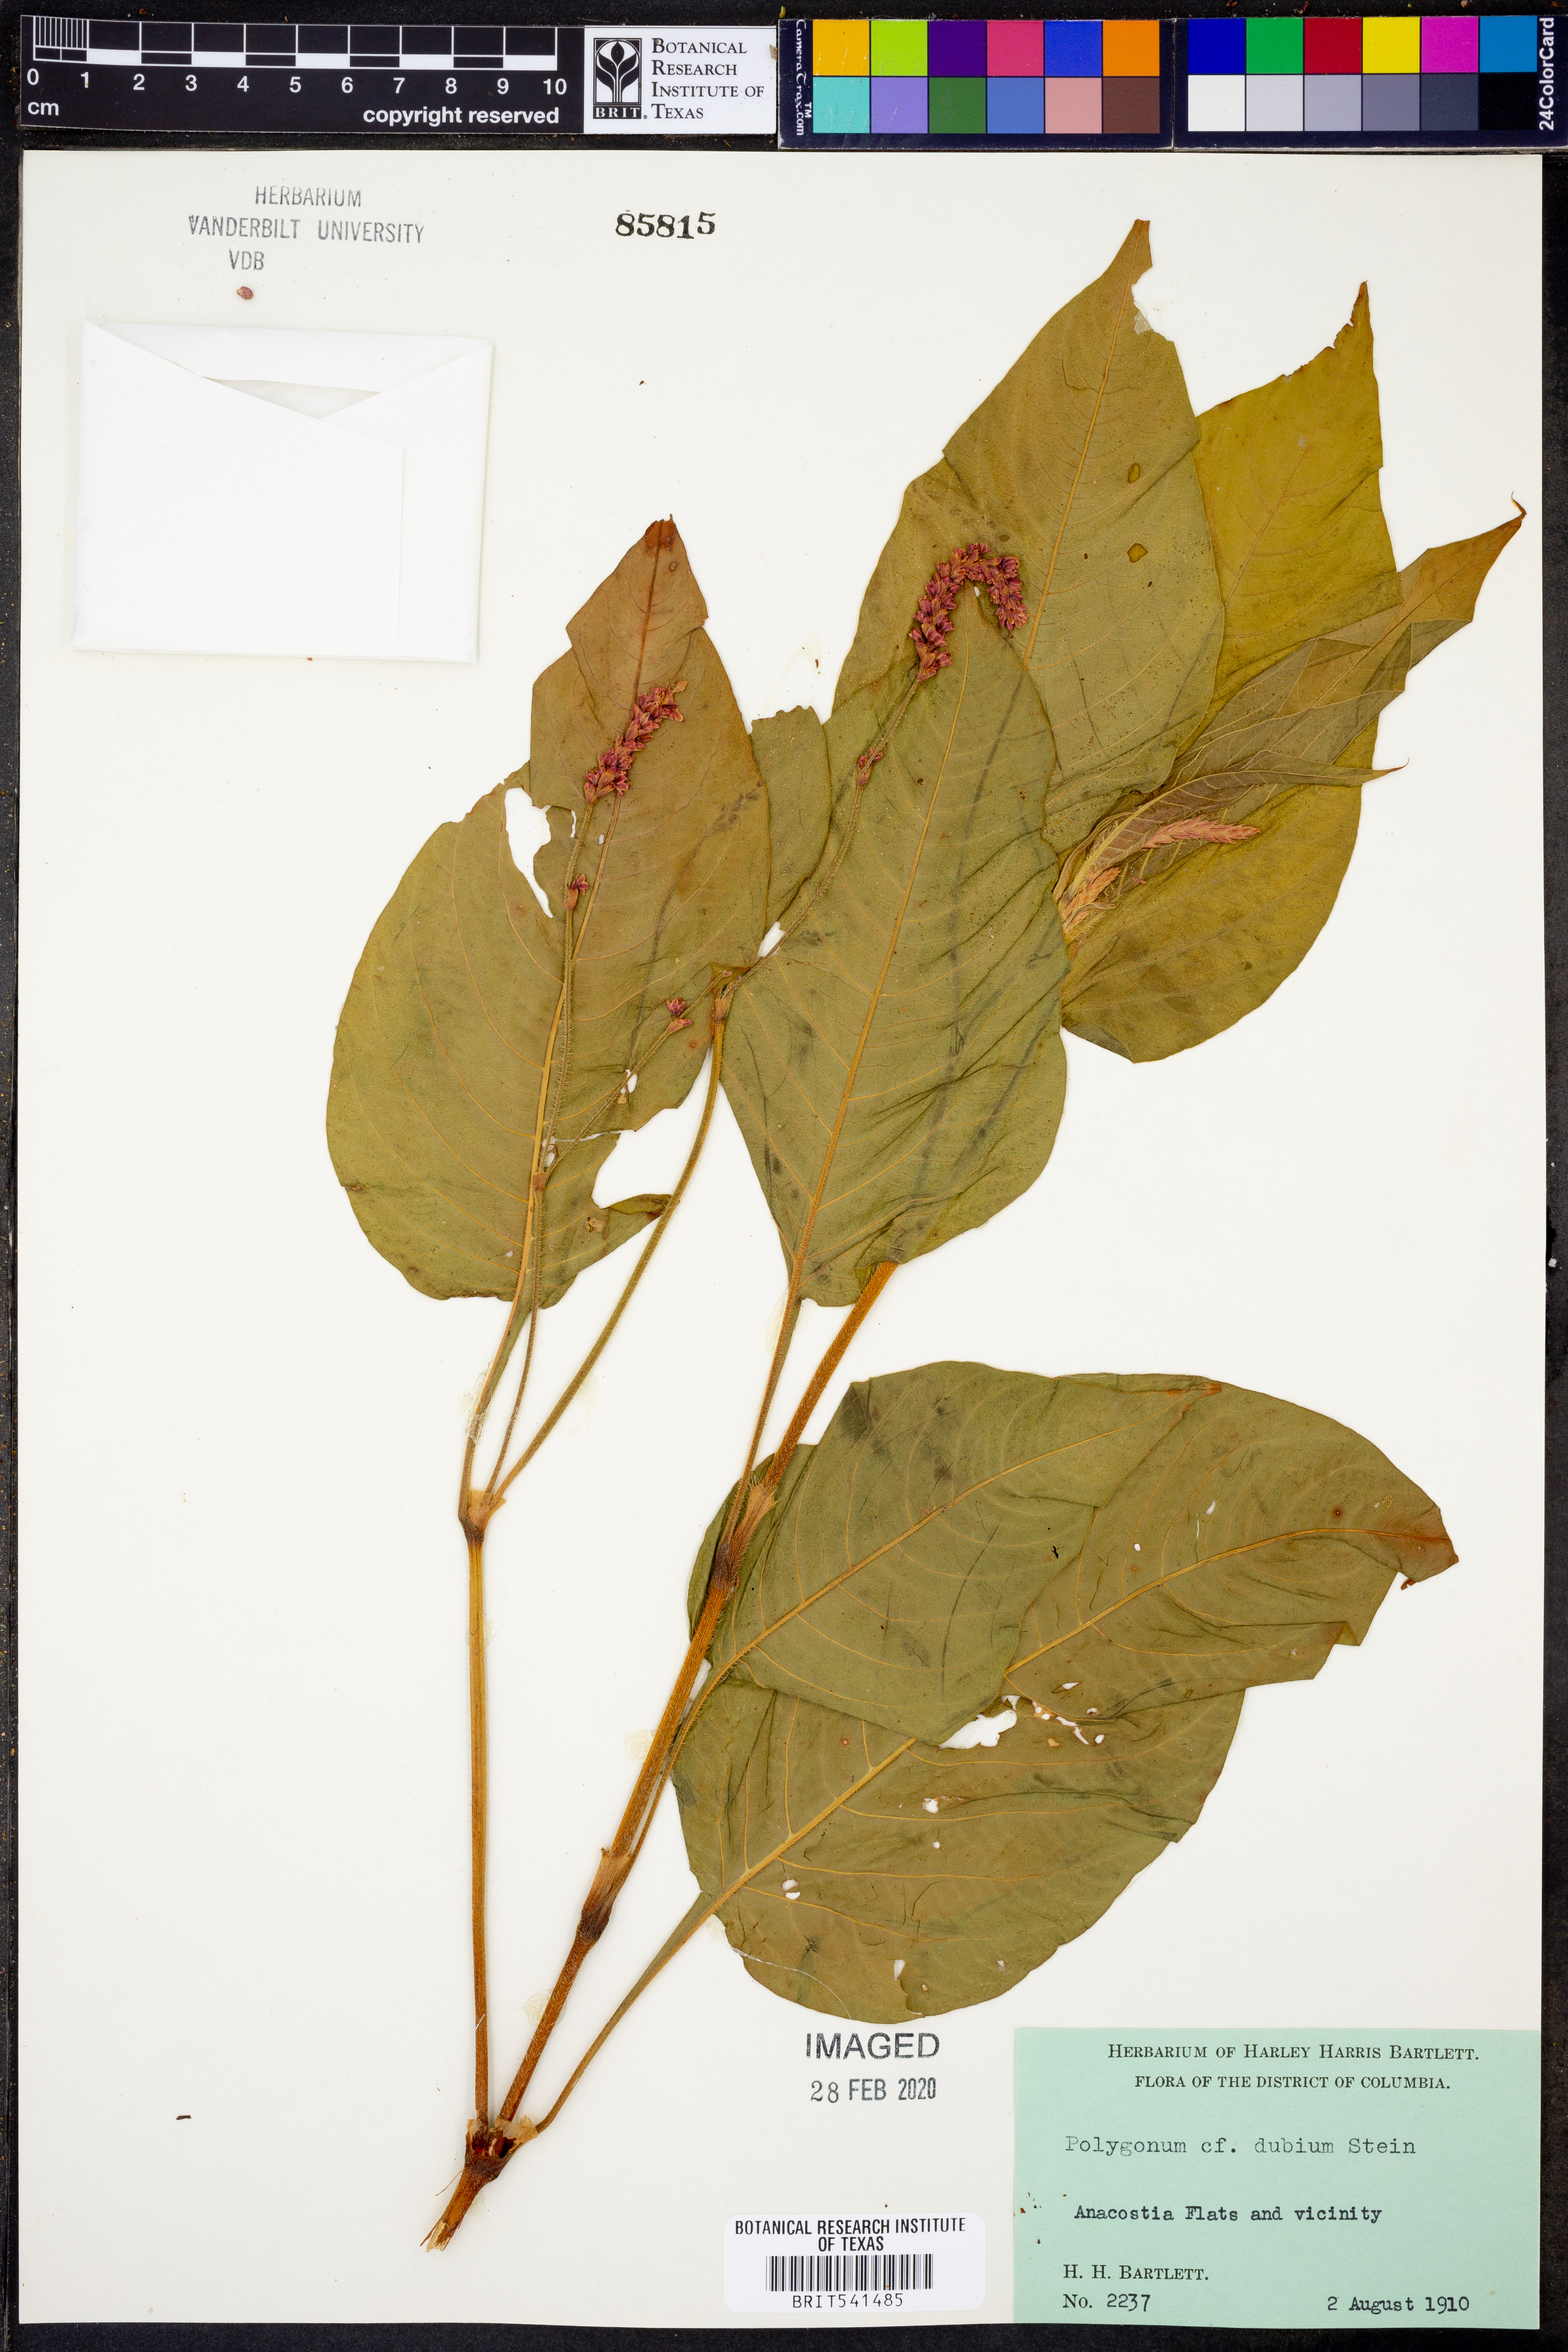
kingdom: Plantae
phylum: Tracheophyta
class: Magnoliopsida
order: Caryophyllales
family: Polygonaceae
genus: Polygonum
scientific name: Polygonum
